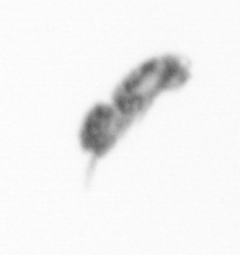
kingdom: Animalia
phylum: Arthropoda
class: Copepoda
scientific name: Copepoda
